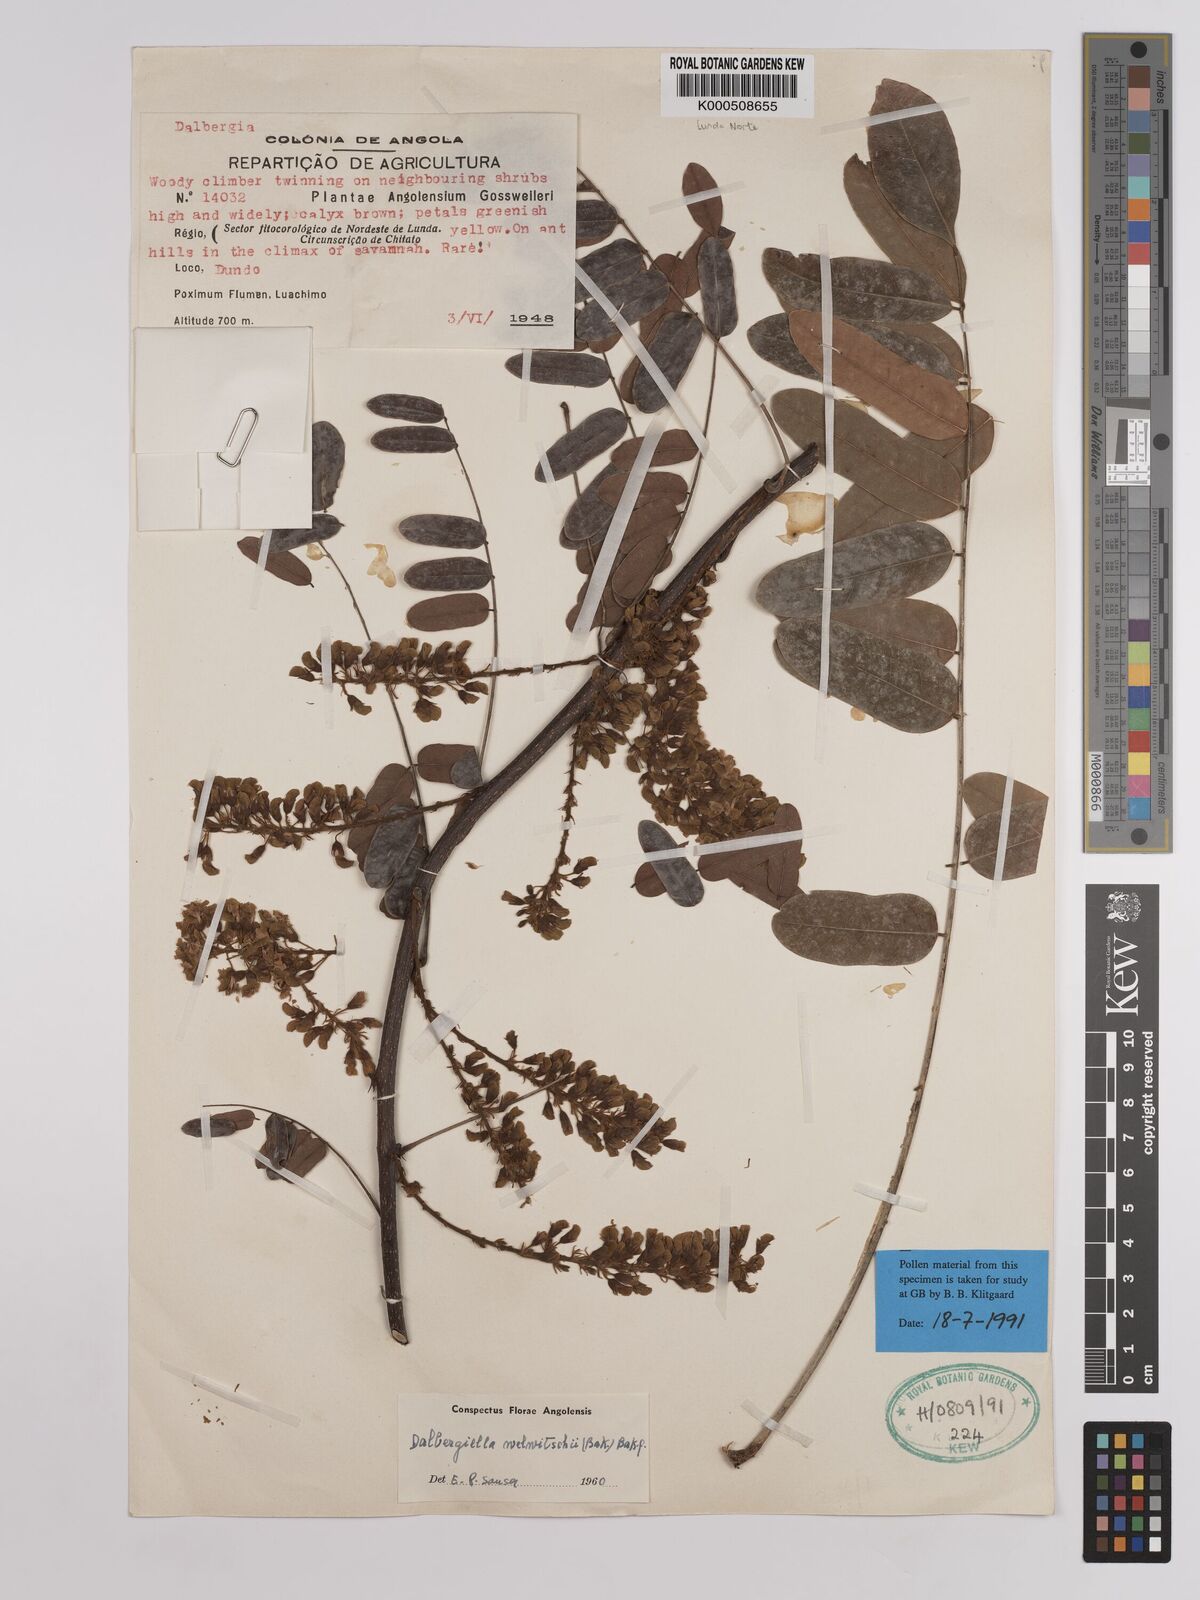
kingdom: Plantae
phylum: Tracheophyta
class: Magnoliopsida
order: Fabales
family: Fabaceae
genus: Dalbergiella
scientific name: Dalbergiella welwitschii
